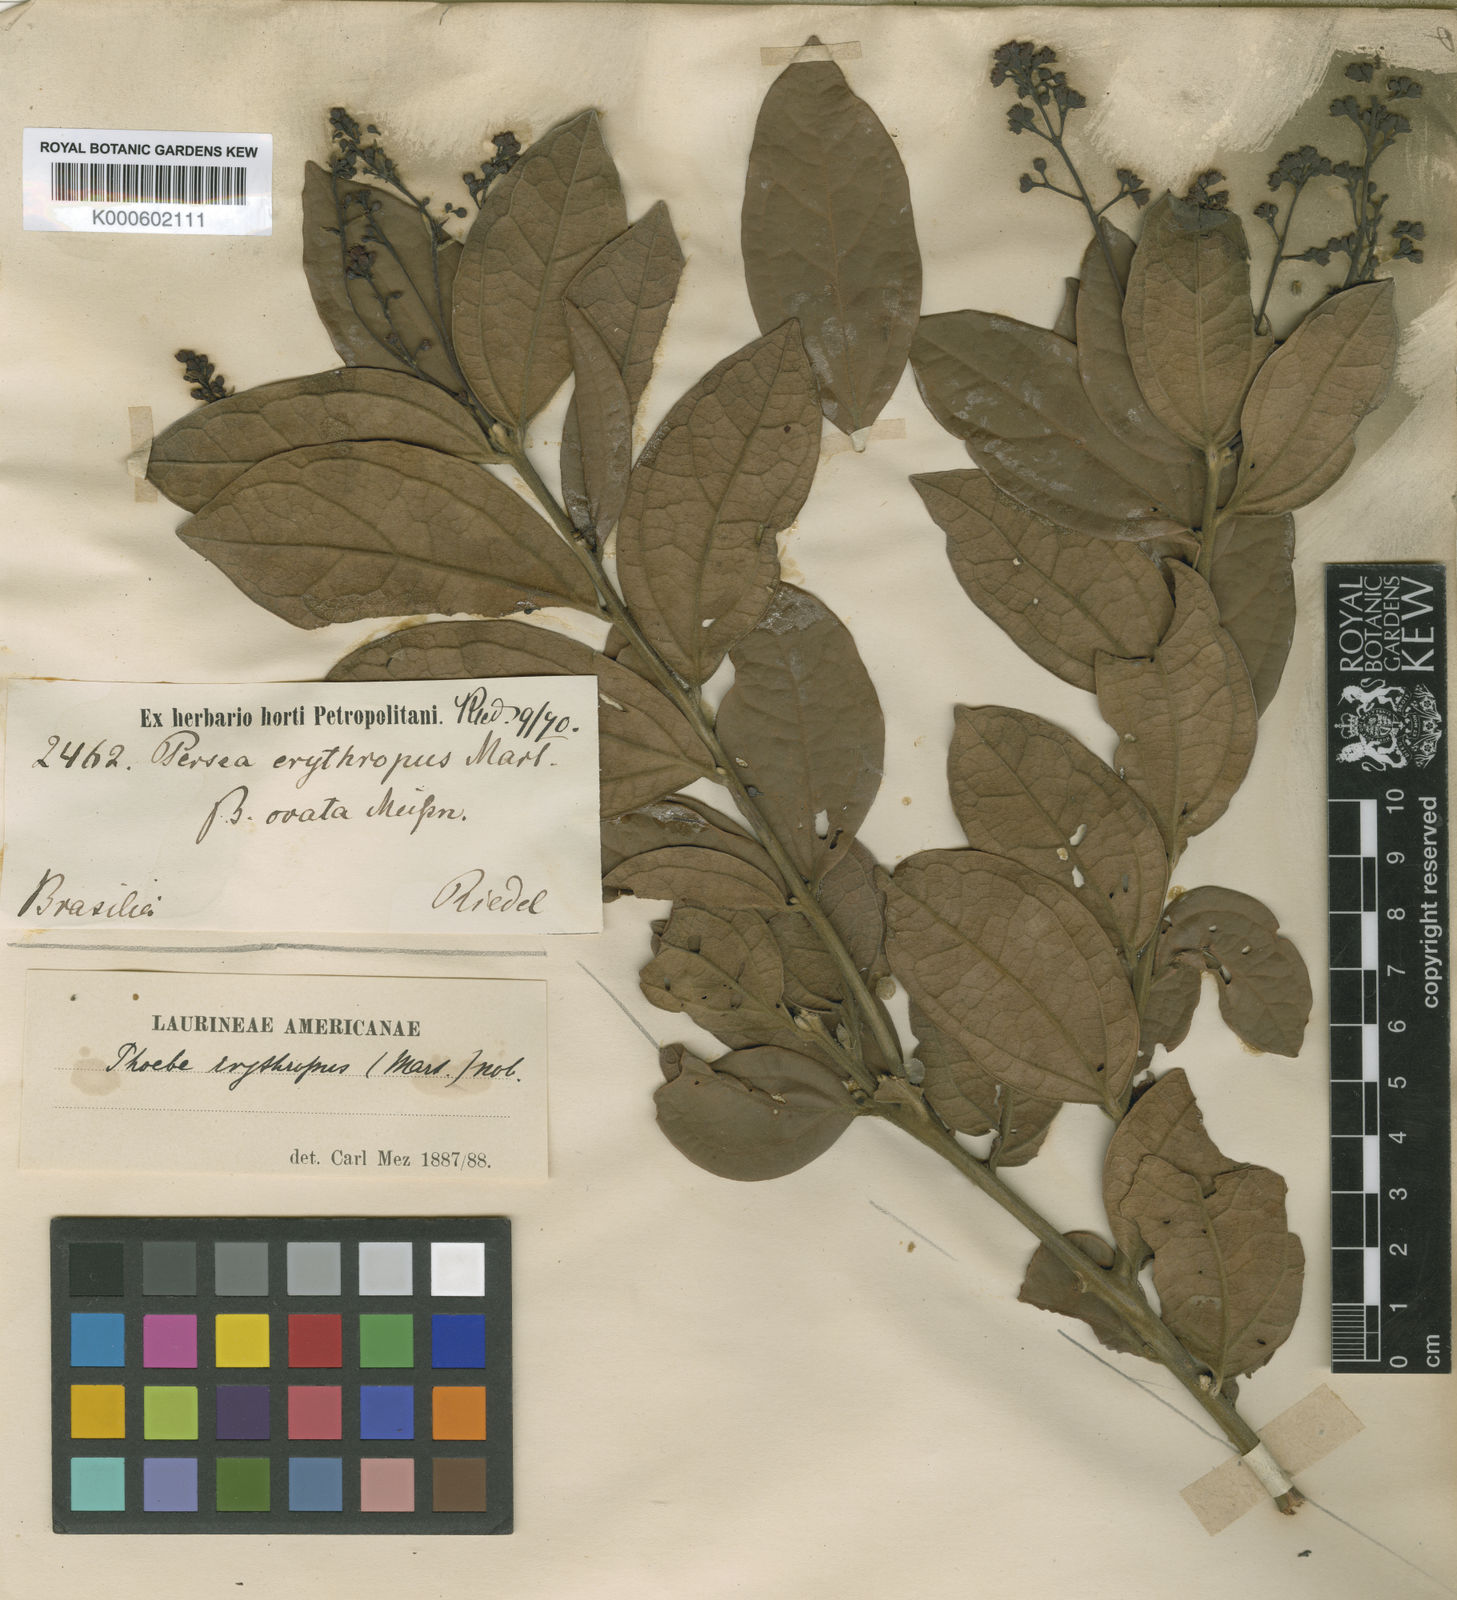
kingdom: Plantae
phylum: Tracheophyta
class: Magnoliopsida
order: Laurales
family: Lauraceae
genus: Aiouea
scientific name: Aiouea erythropus
